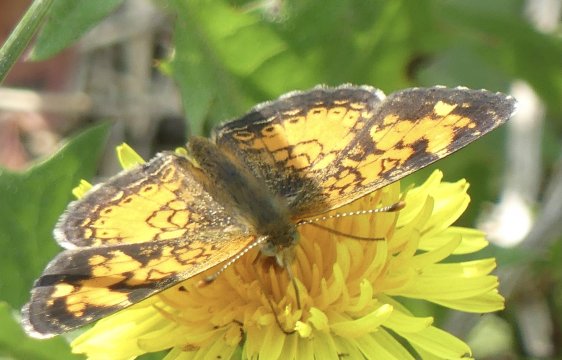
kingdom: Animalia
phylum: Arthropoda
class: Insecta
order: Lepidoptera
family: Nymphalidae
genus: Phyciodes
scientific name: Phyciodes
